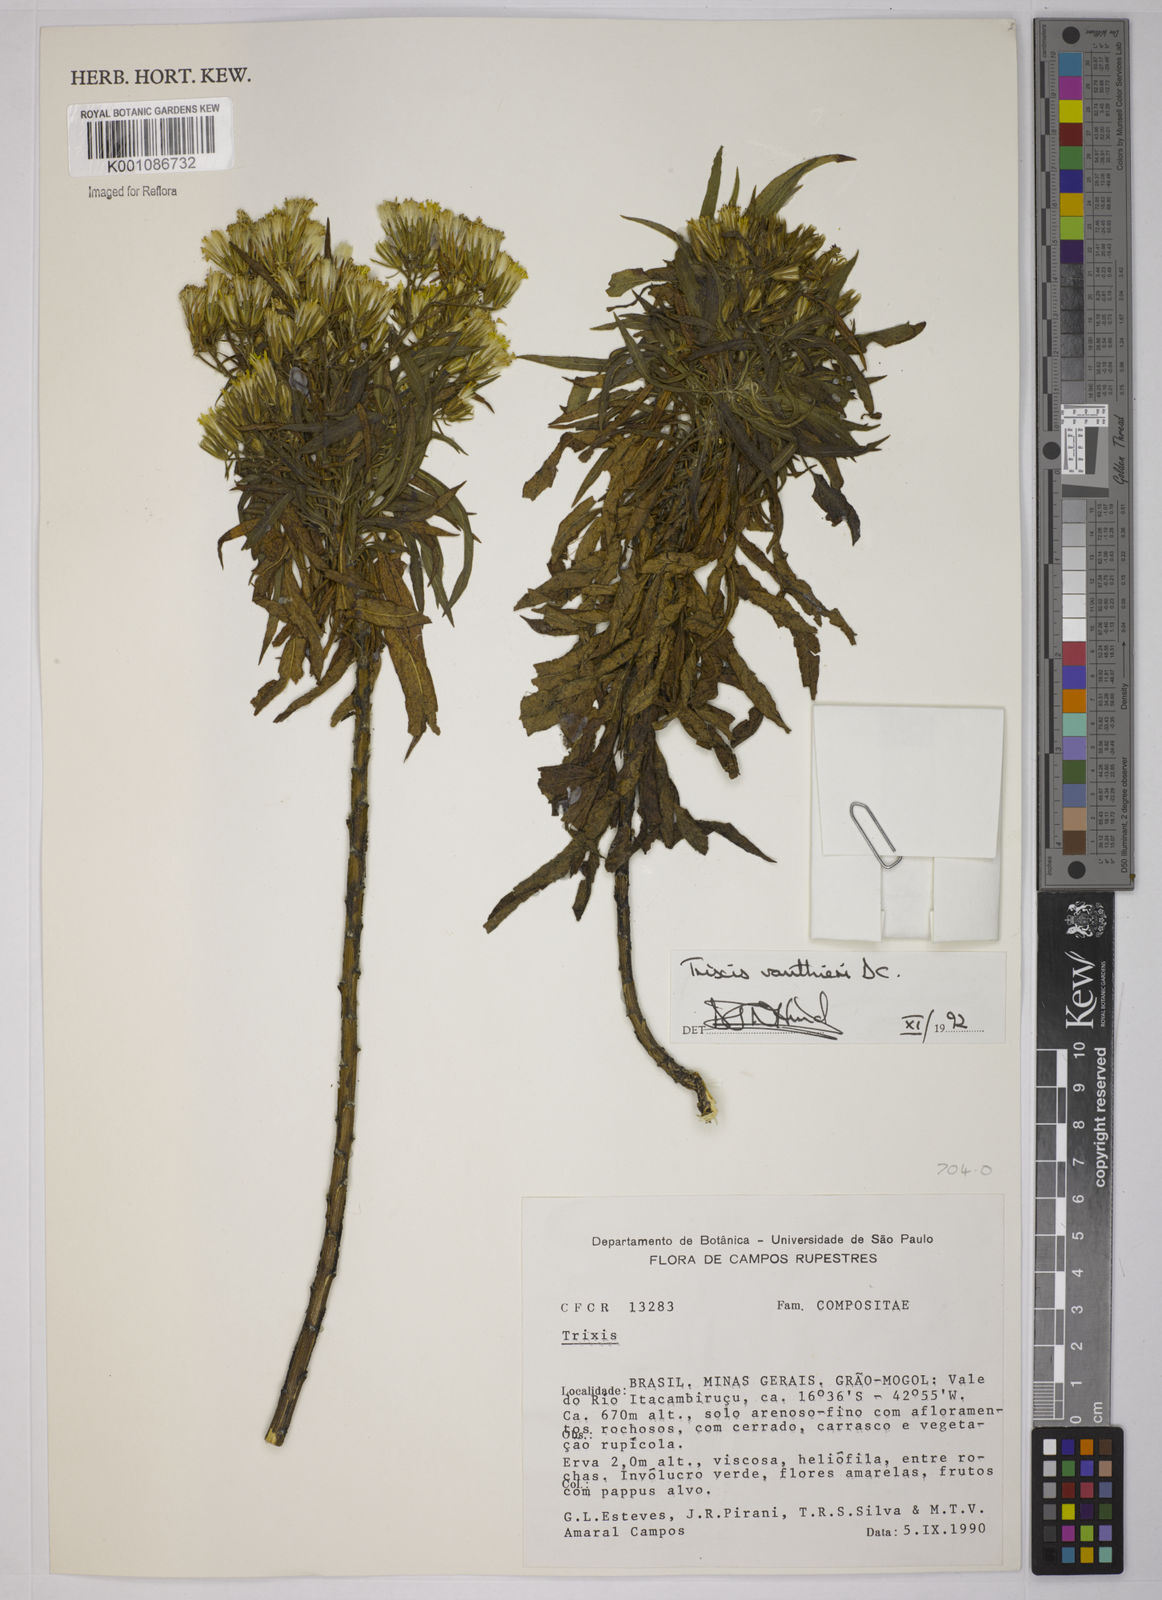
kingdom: Plantae
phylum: Tracheophyta
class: Magnoliopsida
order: Asterales
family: Asteraceae
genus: Trixis
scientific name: Trixis vauthieri
